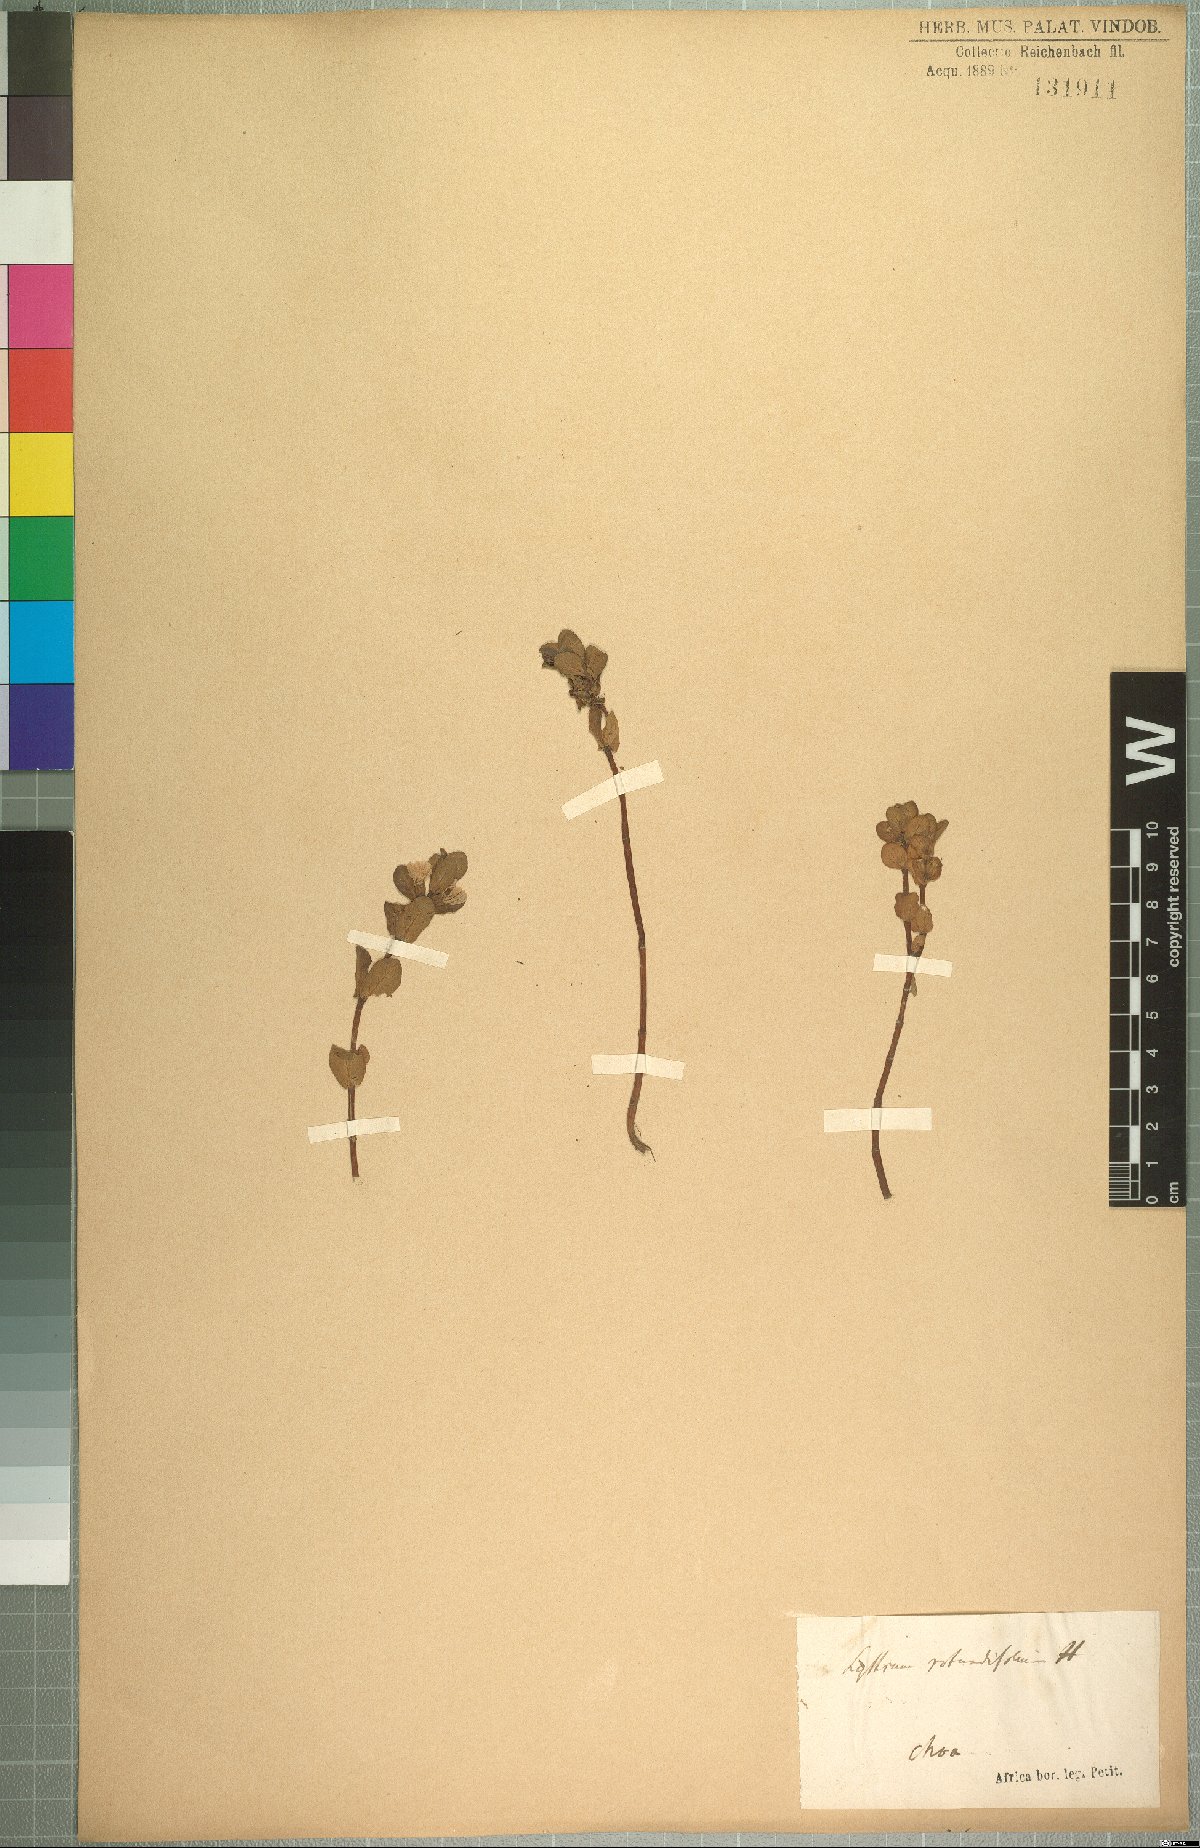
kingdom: Plantae
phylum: Tracheophyta
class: Magnoliopsida
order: Myrtales
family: Lythraceae
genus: Lythrum
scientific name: Lythrum rotundifolium
